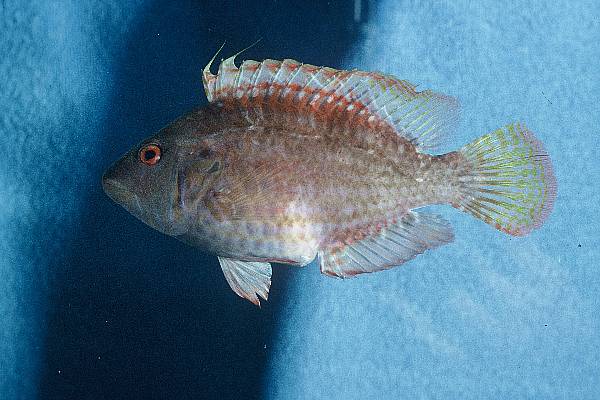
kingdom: Animalia
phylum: Chordata
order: Perciformes
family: Labridae
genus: Pteragogus
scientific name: Pteragogus flagellifer
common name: Cocktail wrasse
